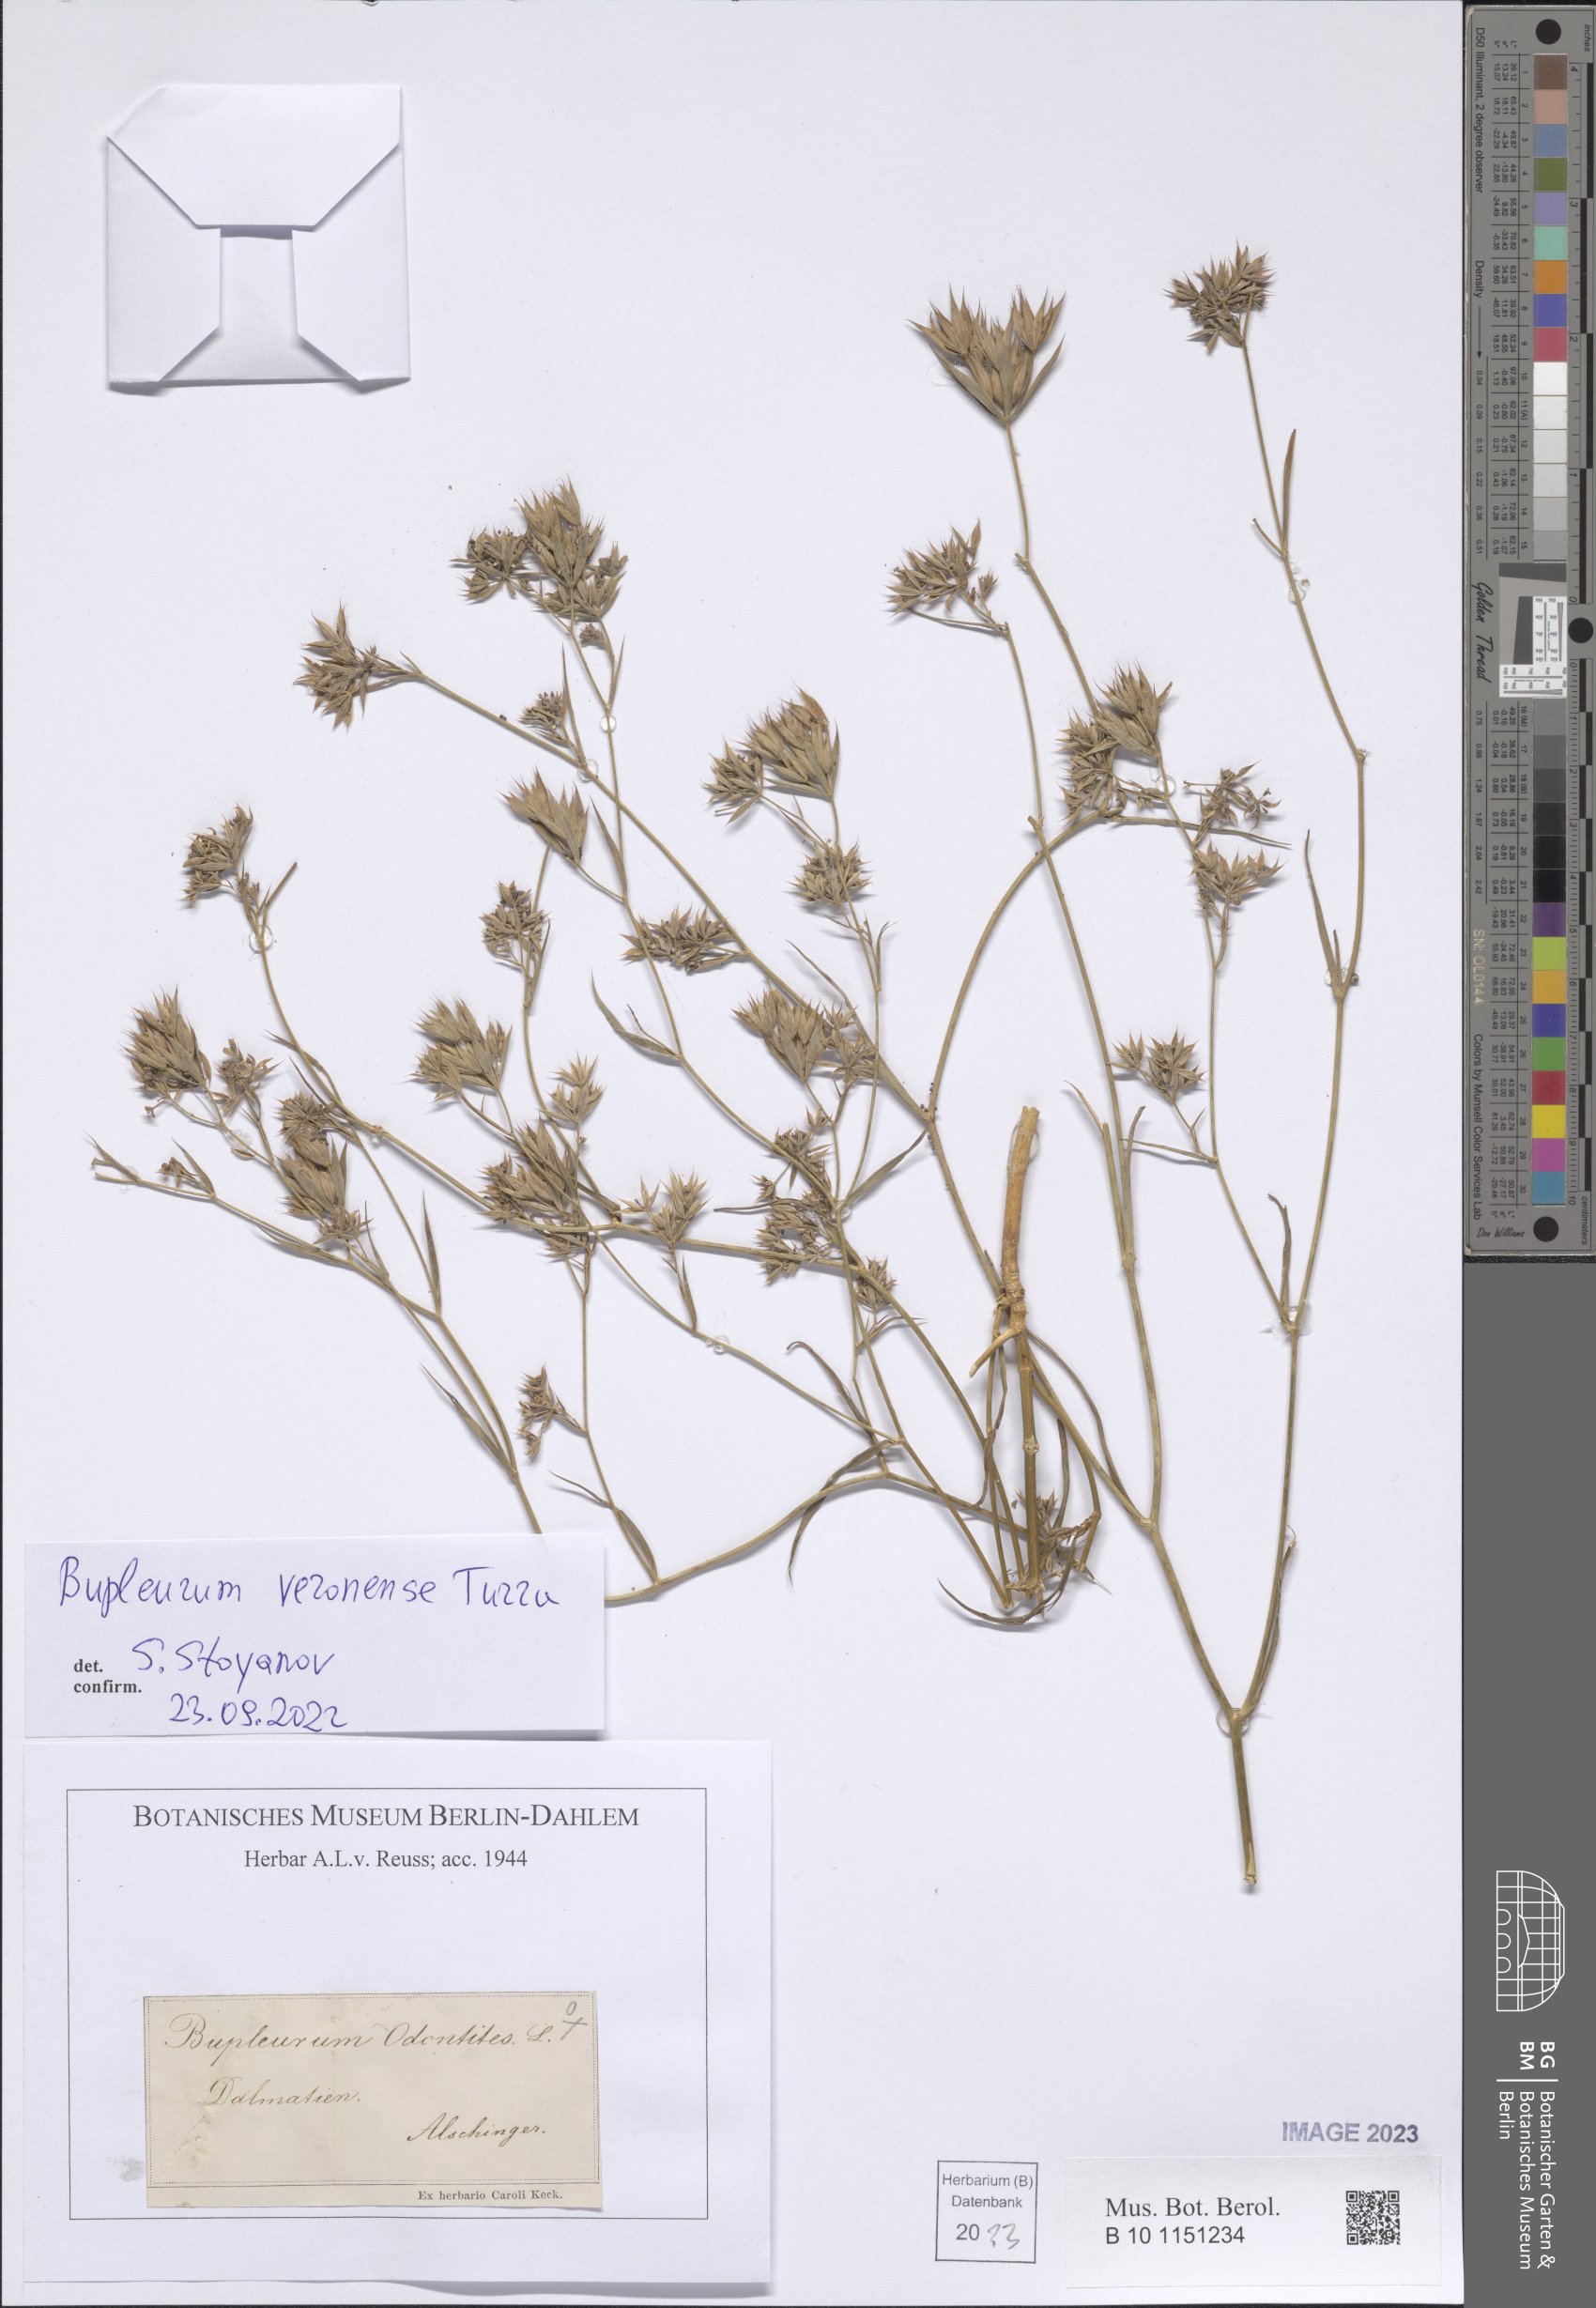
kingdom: Plantae
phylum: Tracheophyta
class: Magnoliopsida
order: Apiales
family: Apiaceae
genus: Bupleurum
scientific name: Bupleurum veronense
